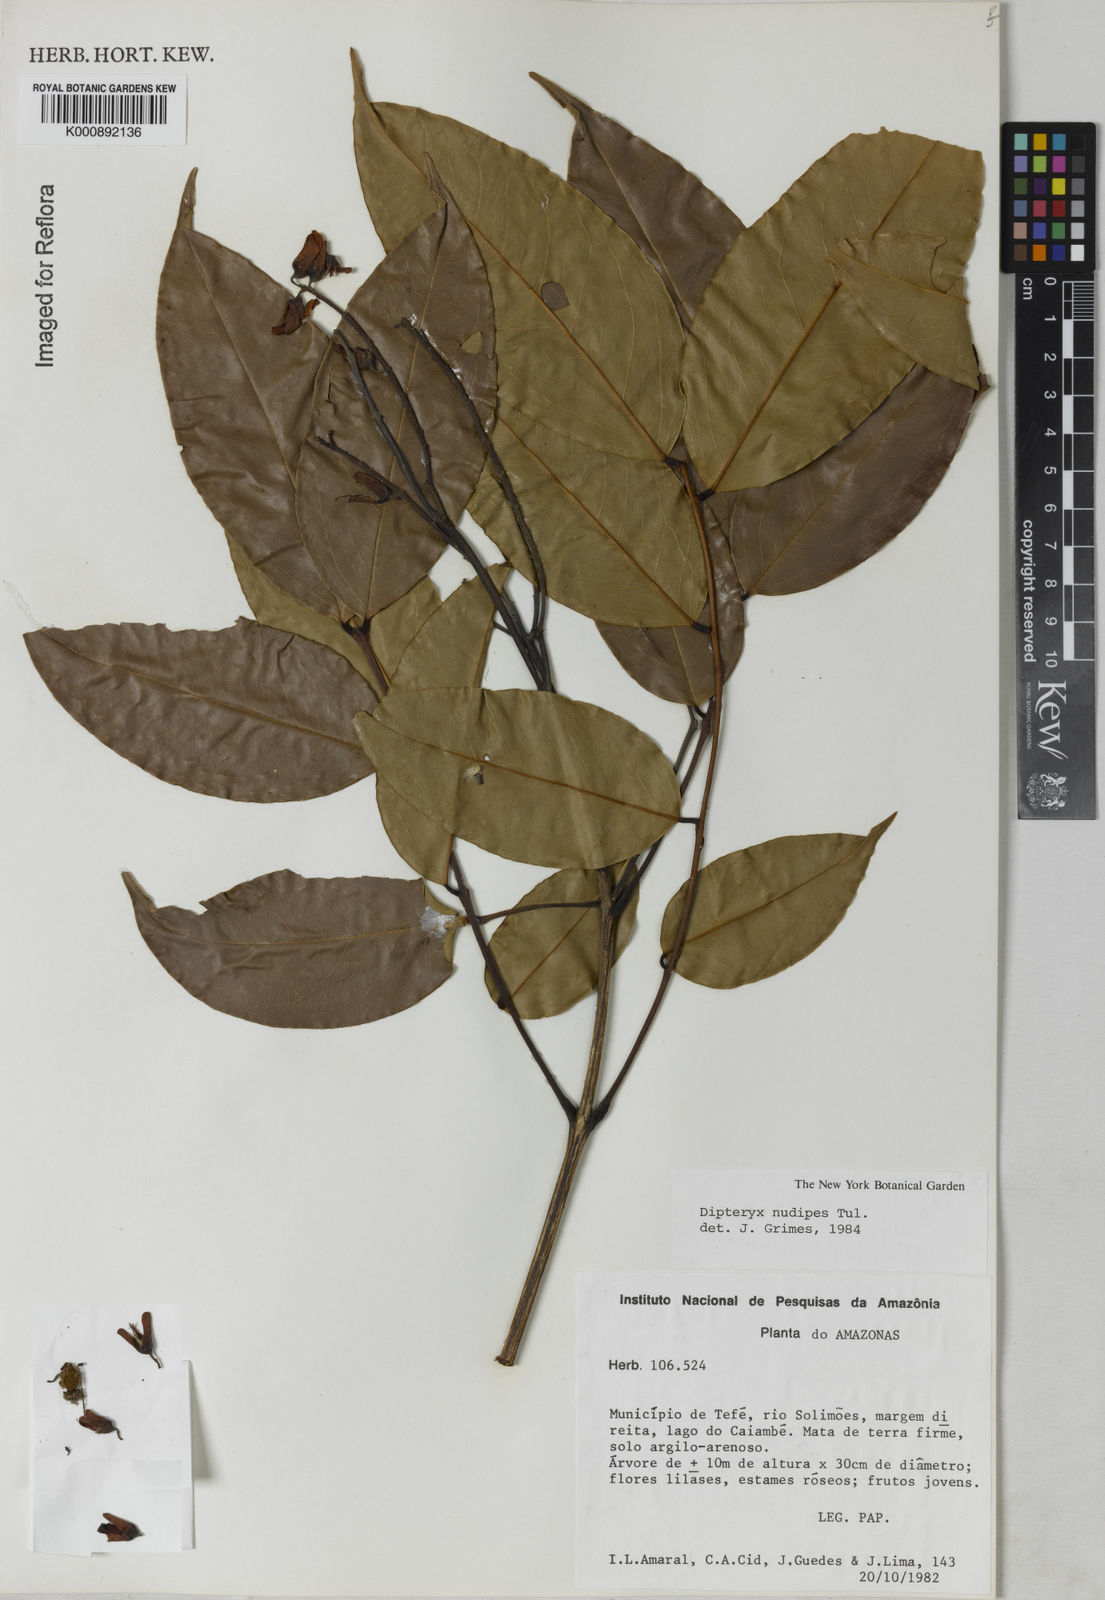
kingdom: Plantae
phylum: Tracheophyta
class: Magnoliopsida
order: Fabales
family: Fabaceae
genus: Taralea
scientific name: Taralea nudipes
